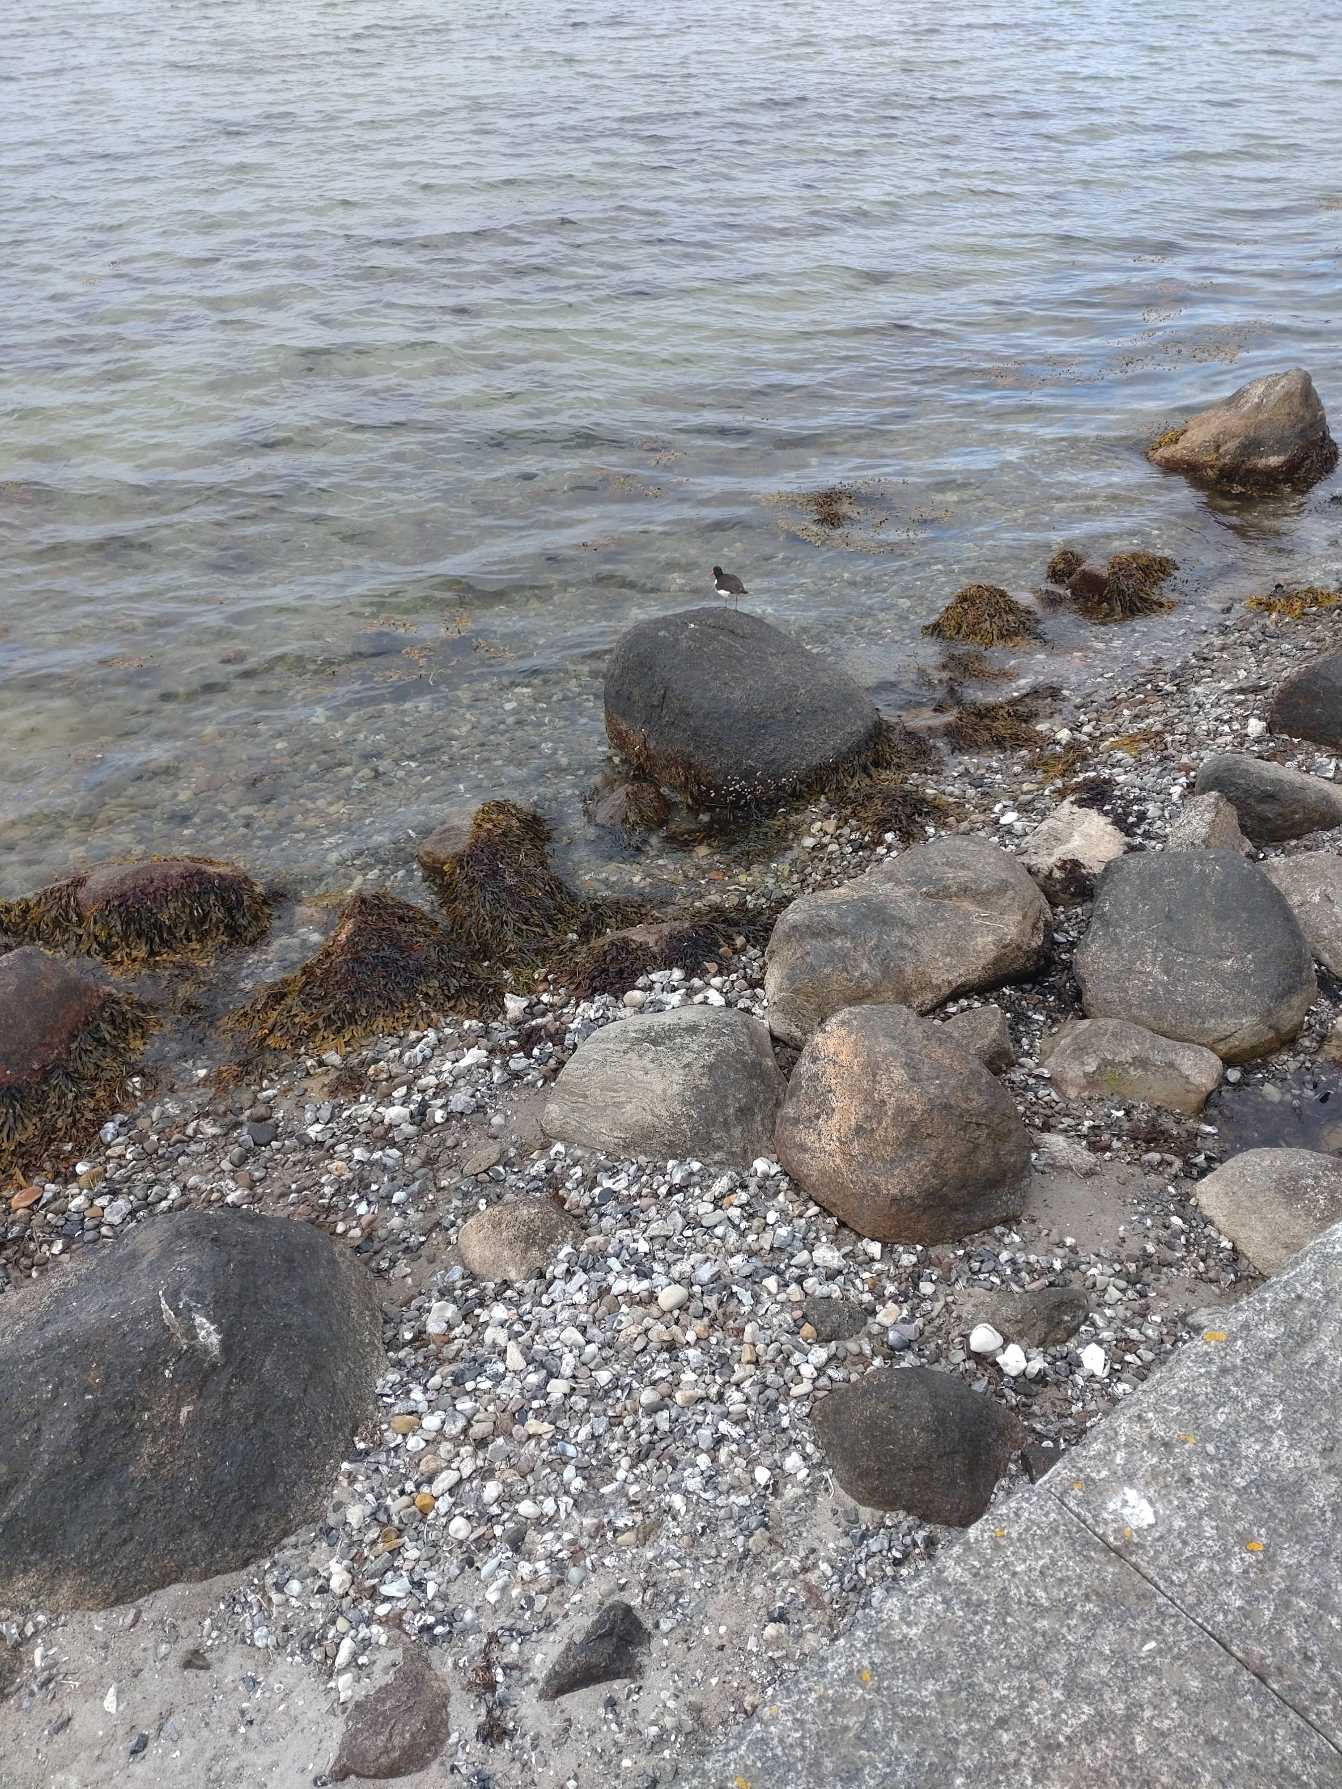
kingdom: Animalia
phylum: Chordata
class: Aves
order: Charadriiformes
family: Haematopodidae
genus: Haematopus
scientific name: Haematopus ostralegus
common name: Strandskade
